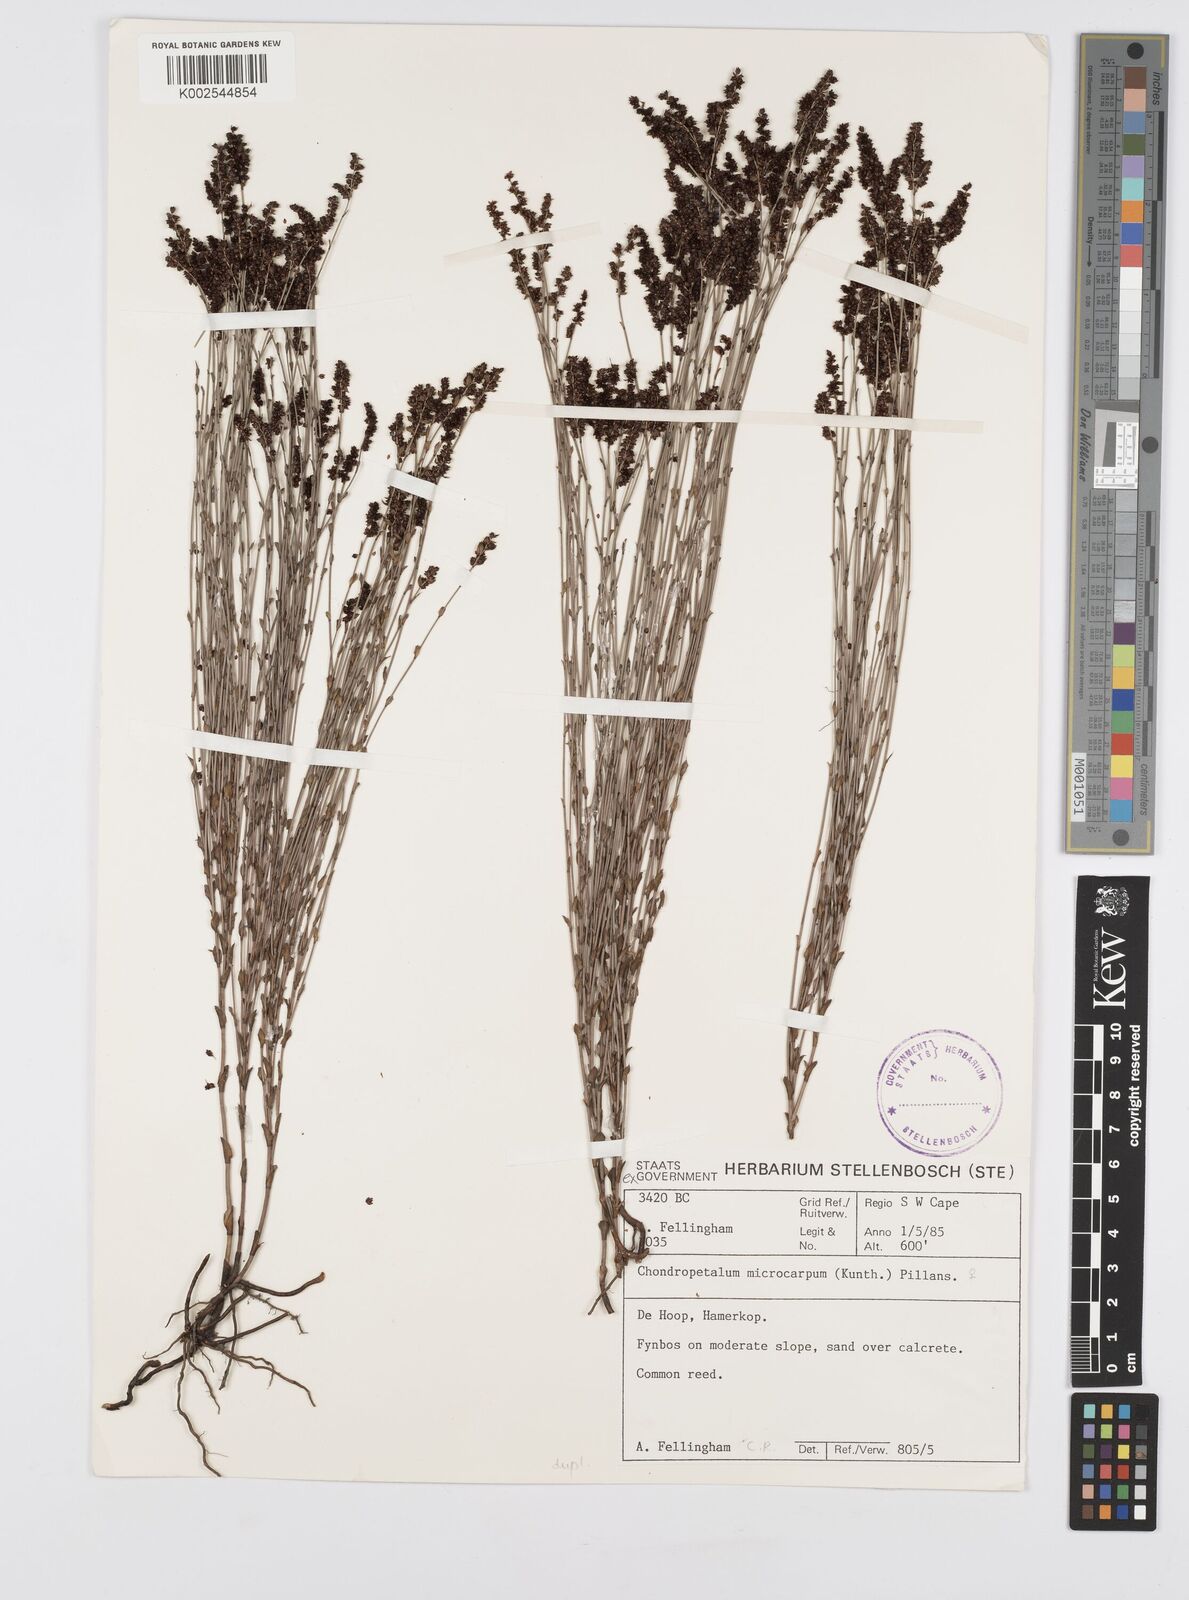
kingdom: Plantae
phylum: Tracheophyta
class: Liliopsida
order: Poales
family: Restionaceae
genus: Elegia
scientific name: Elegia microcarpa
